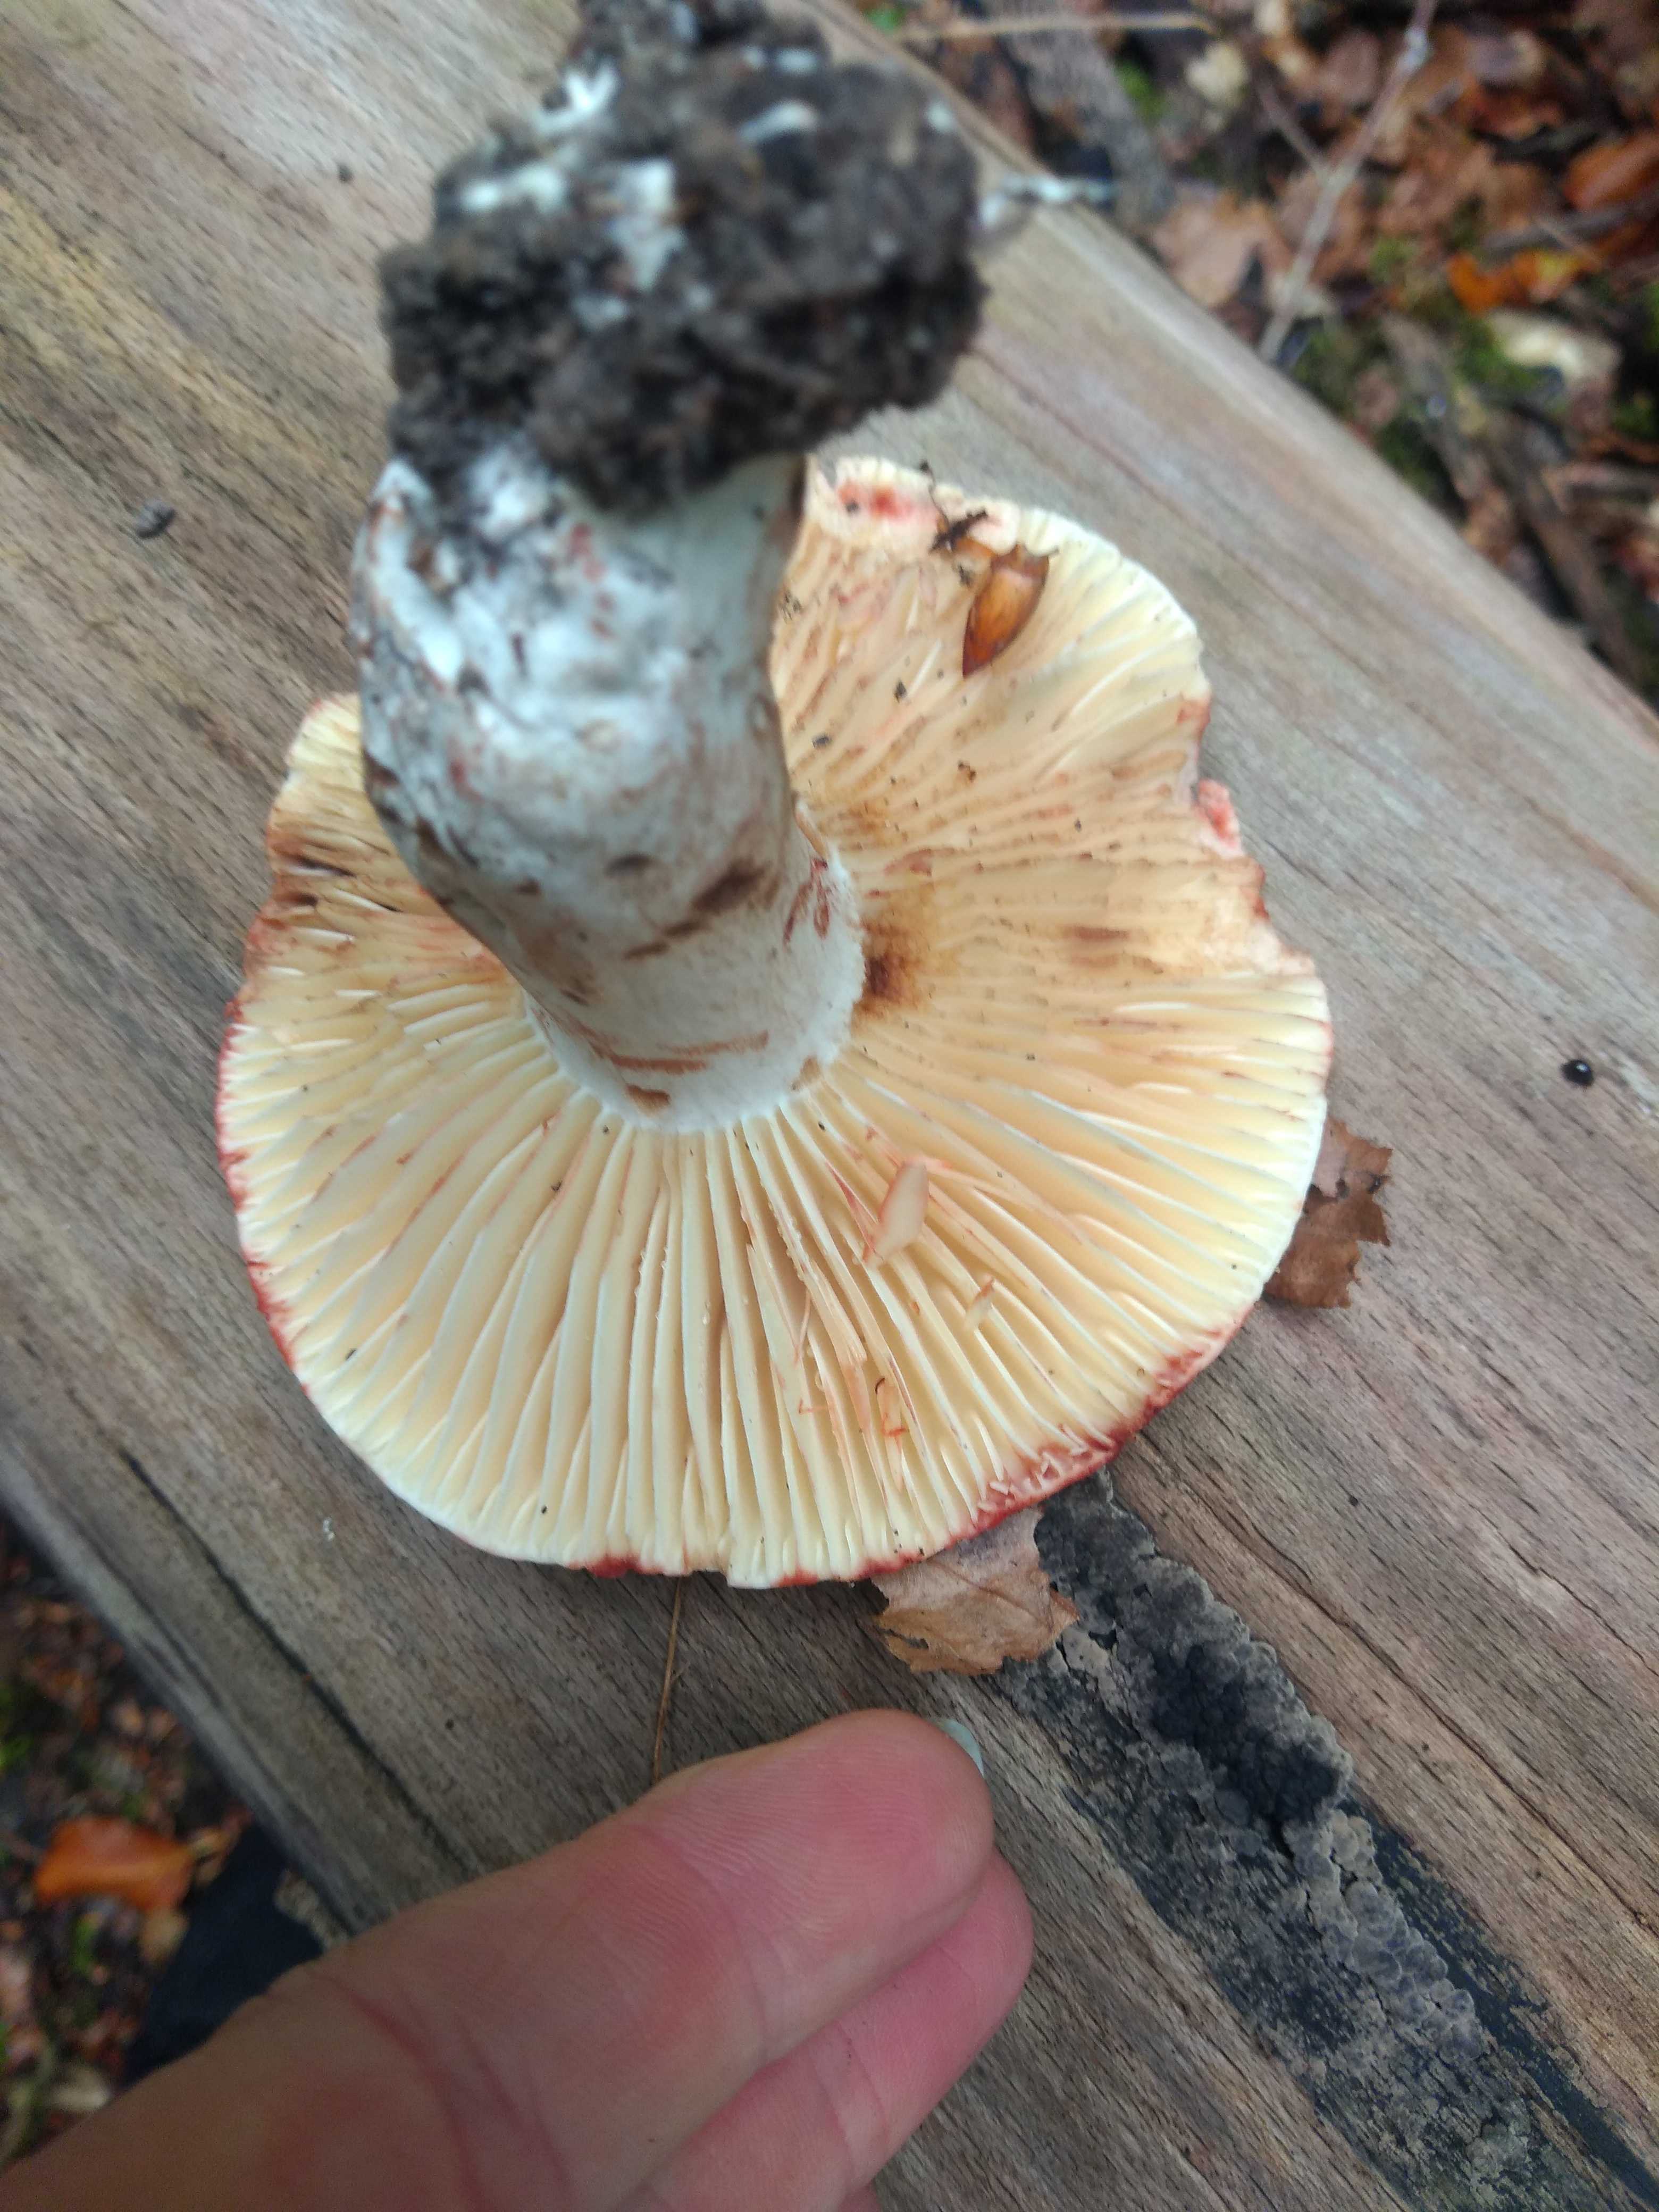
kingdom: Fungi
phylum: Basidiomycota
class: Agaricomycetes
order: Russulales
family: Russulaceae
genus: Russula
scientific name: Russula adusta
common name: sværtende skørhat
